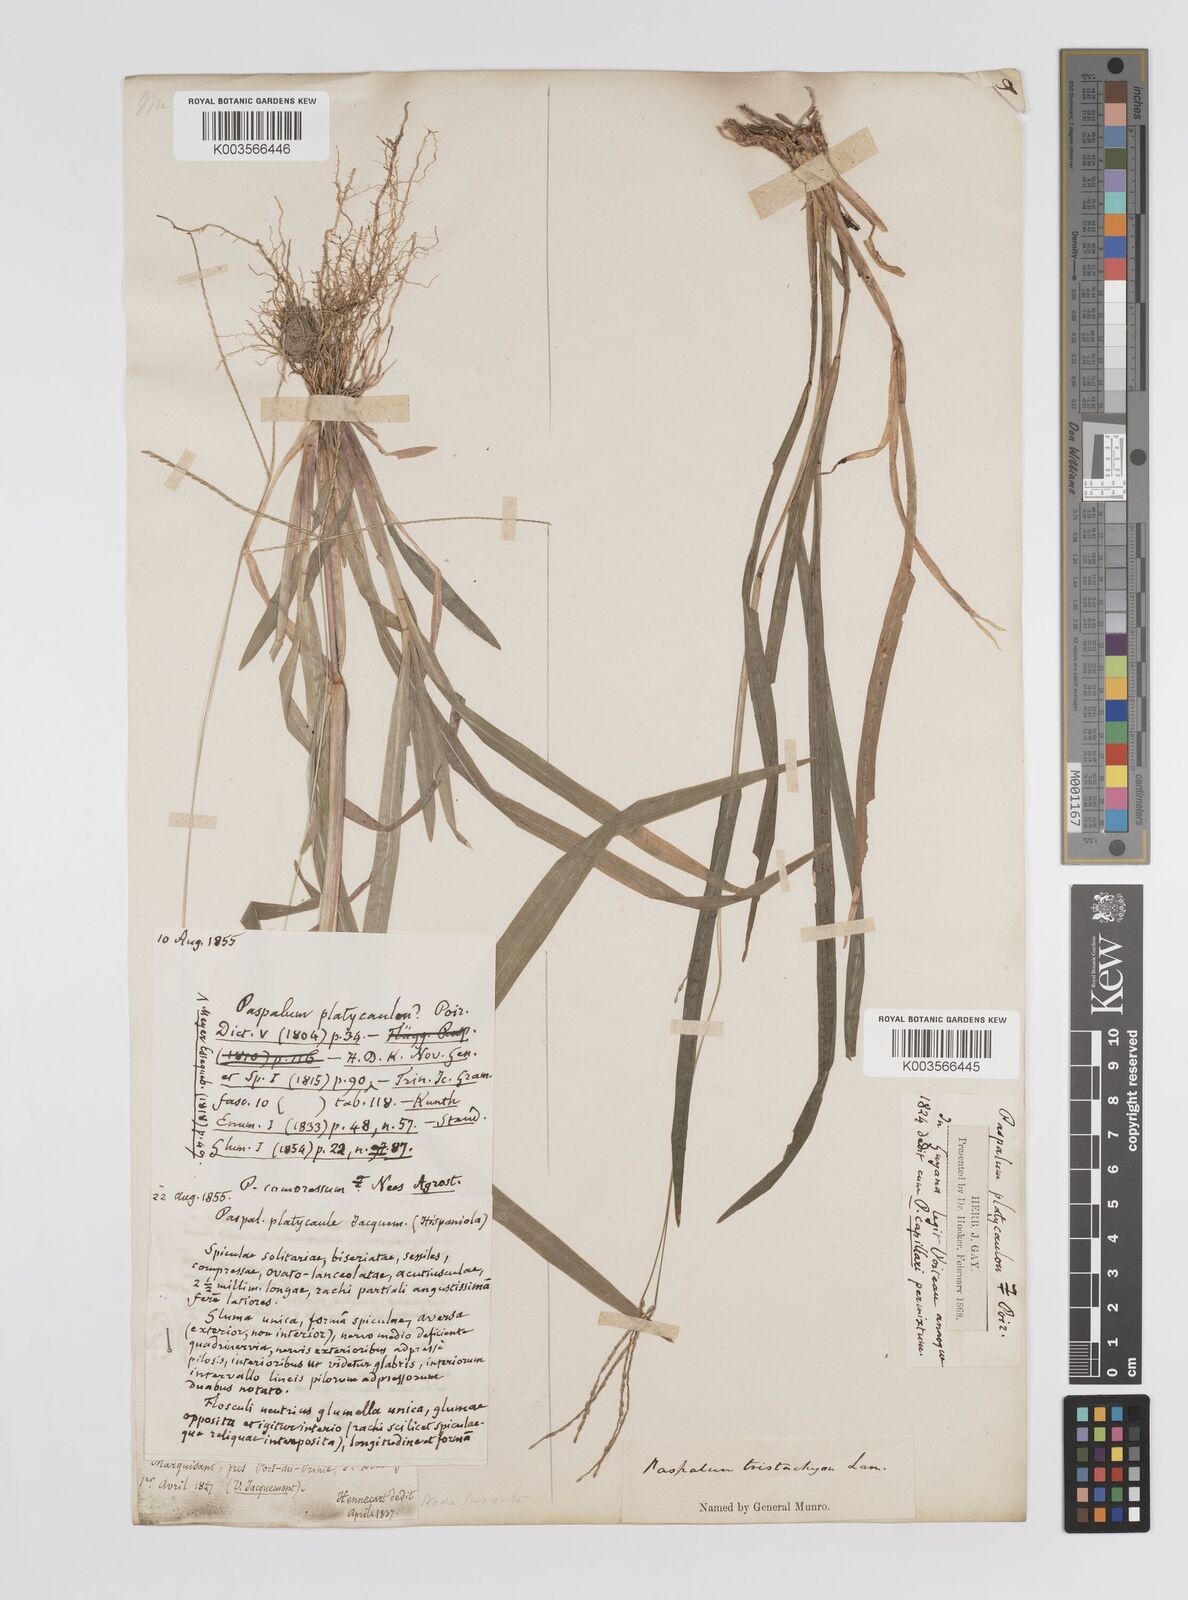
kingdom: Plantae
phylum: Tracheophyta
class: Liliopsida
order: Poales
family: Poaceae
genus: Axonopus
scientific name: Axonopus compressus
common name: American carpet grass
